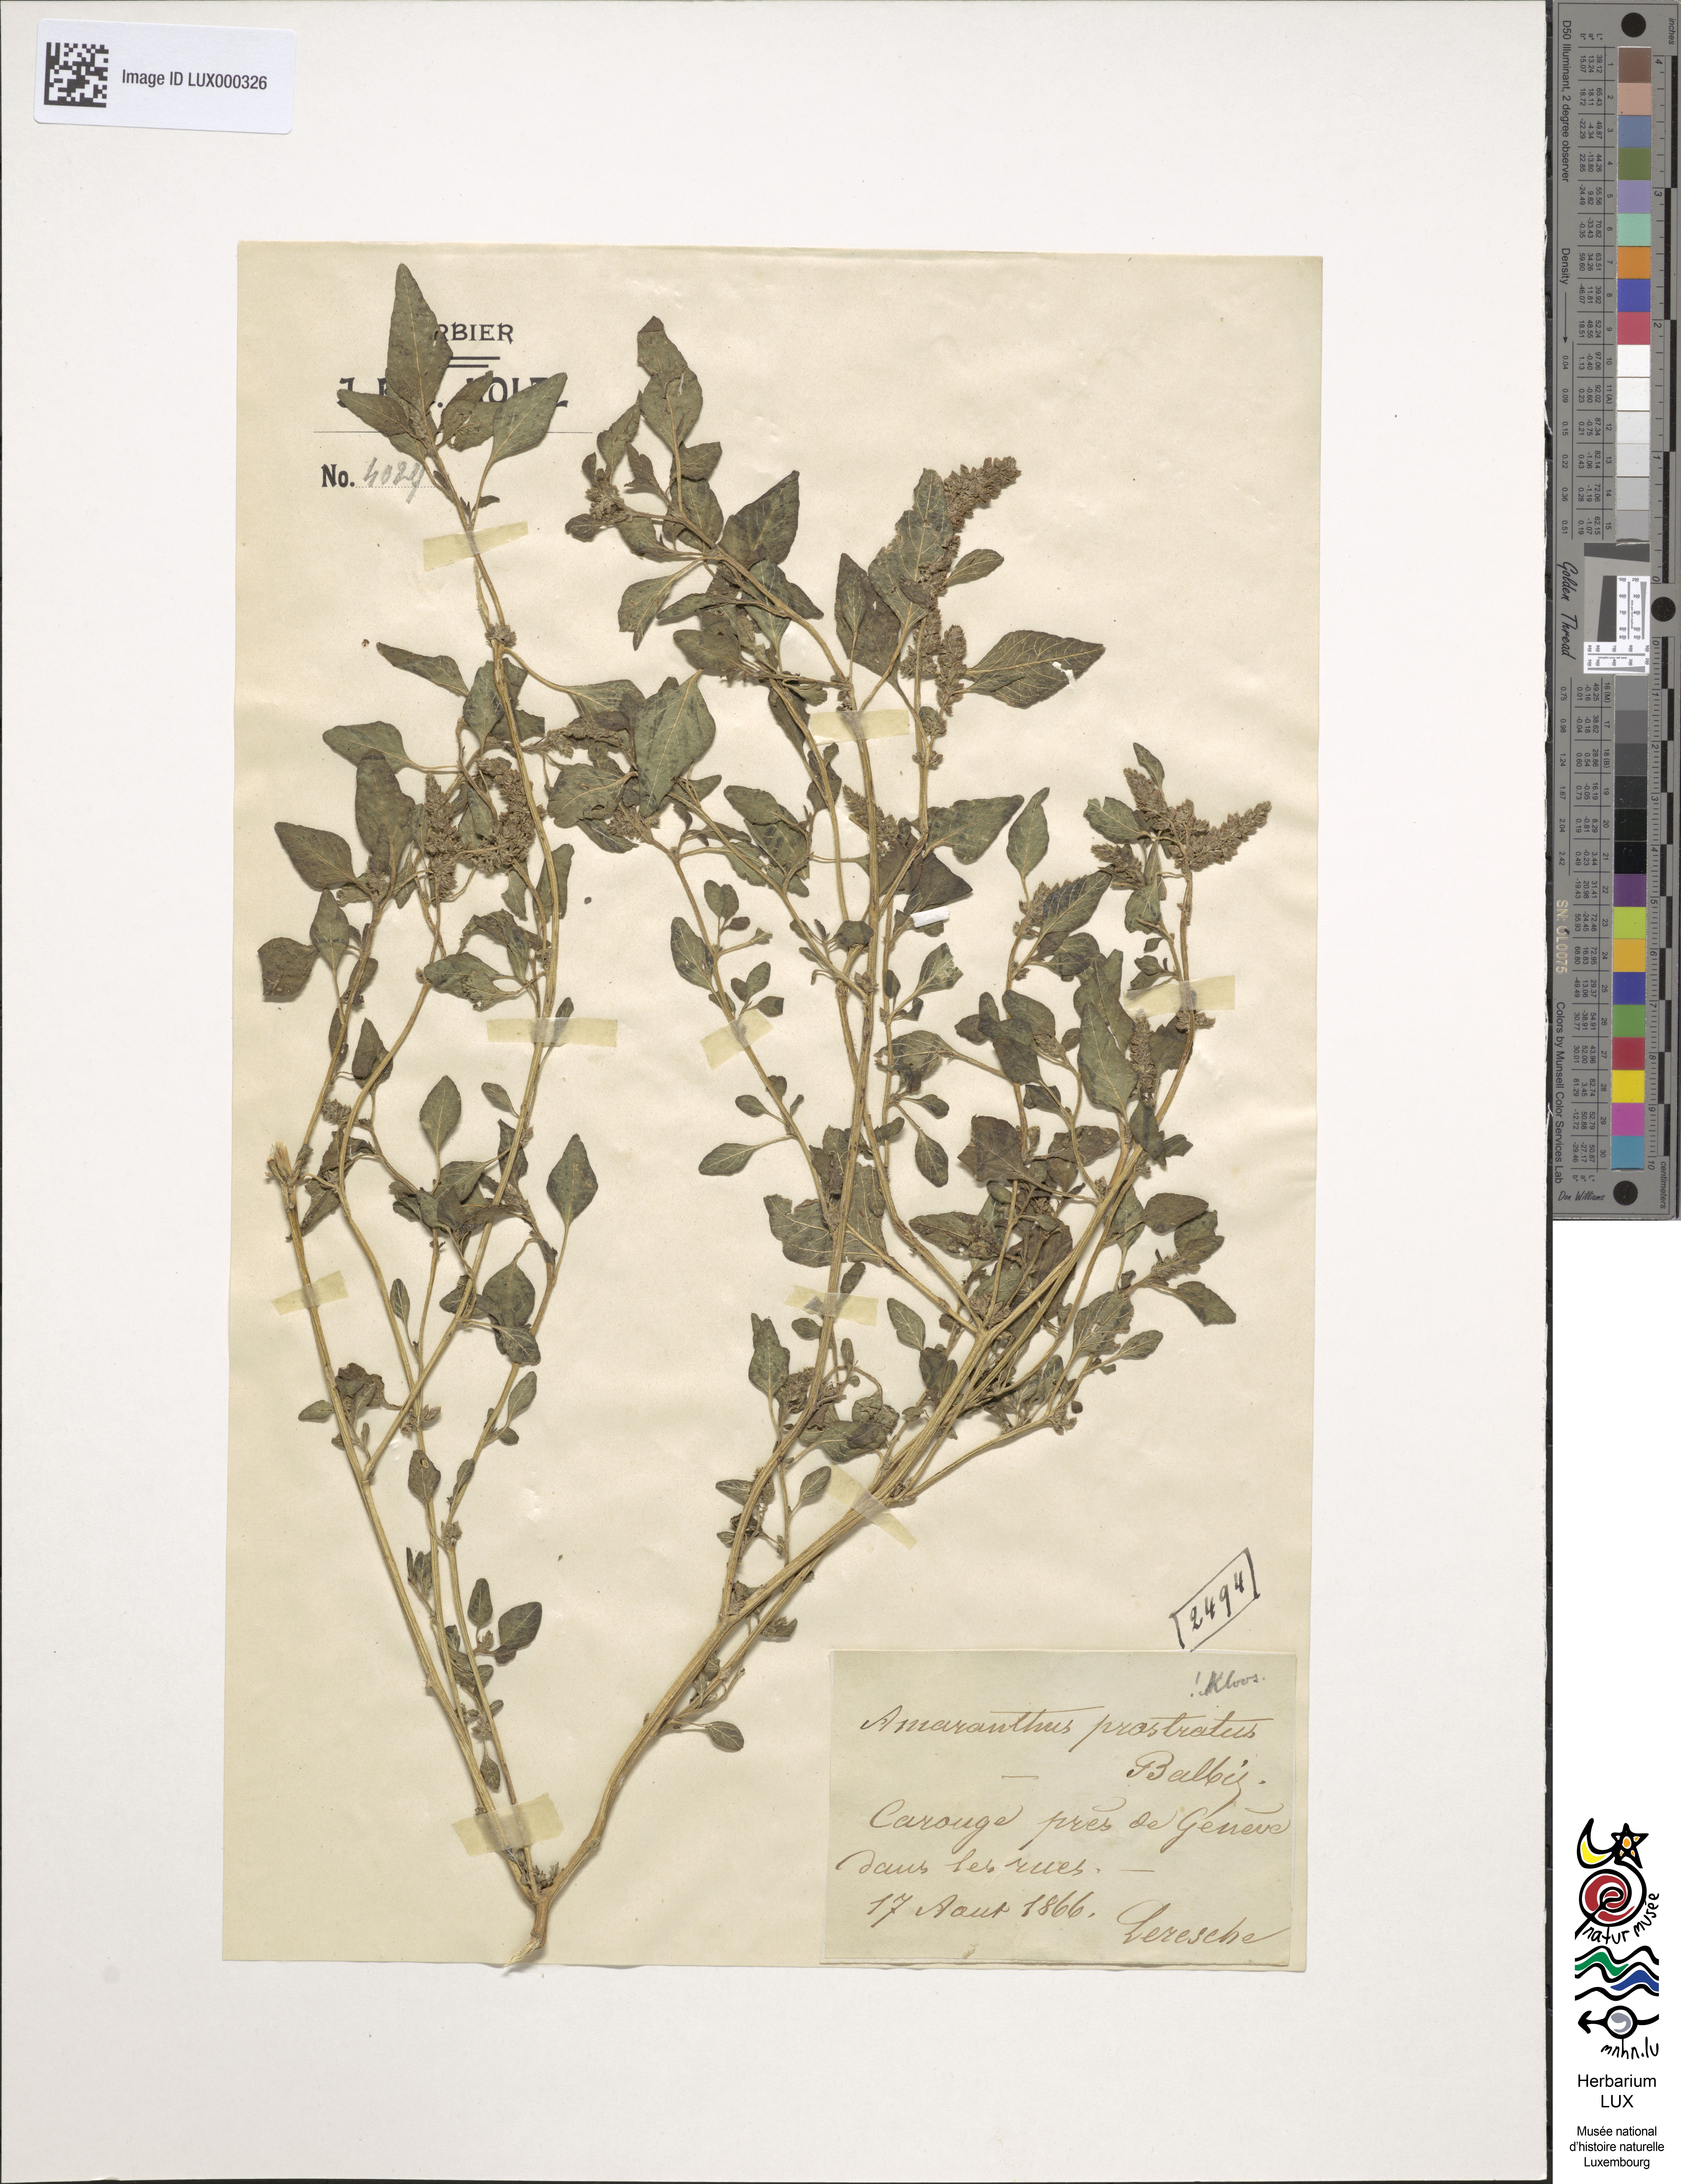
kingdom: Plantae
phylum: Tracheophyta
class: Magnoliopsida
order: Caryophyllales
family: Amaranthaceae
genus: Amaranthus
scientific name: Amaranthus deflexus
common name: Perennial pigweed
